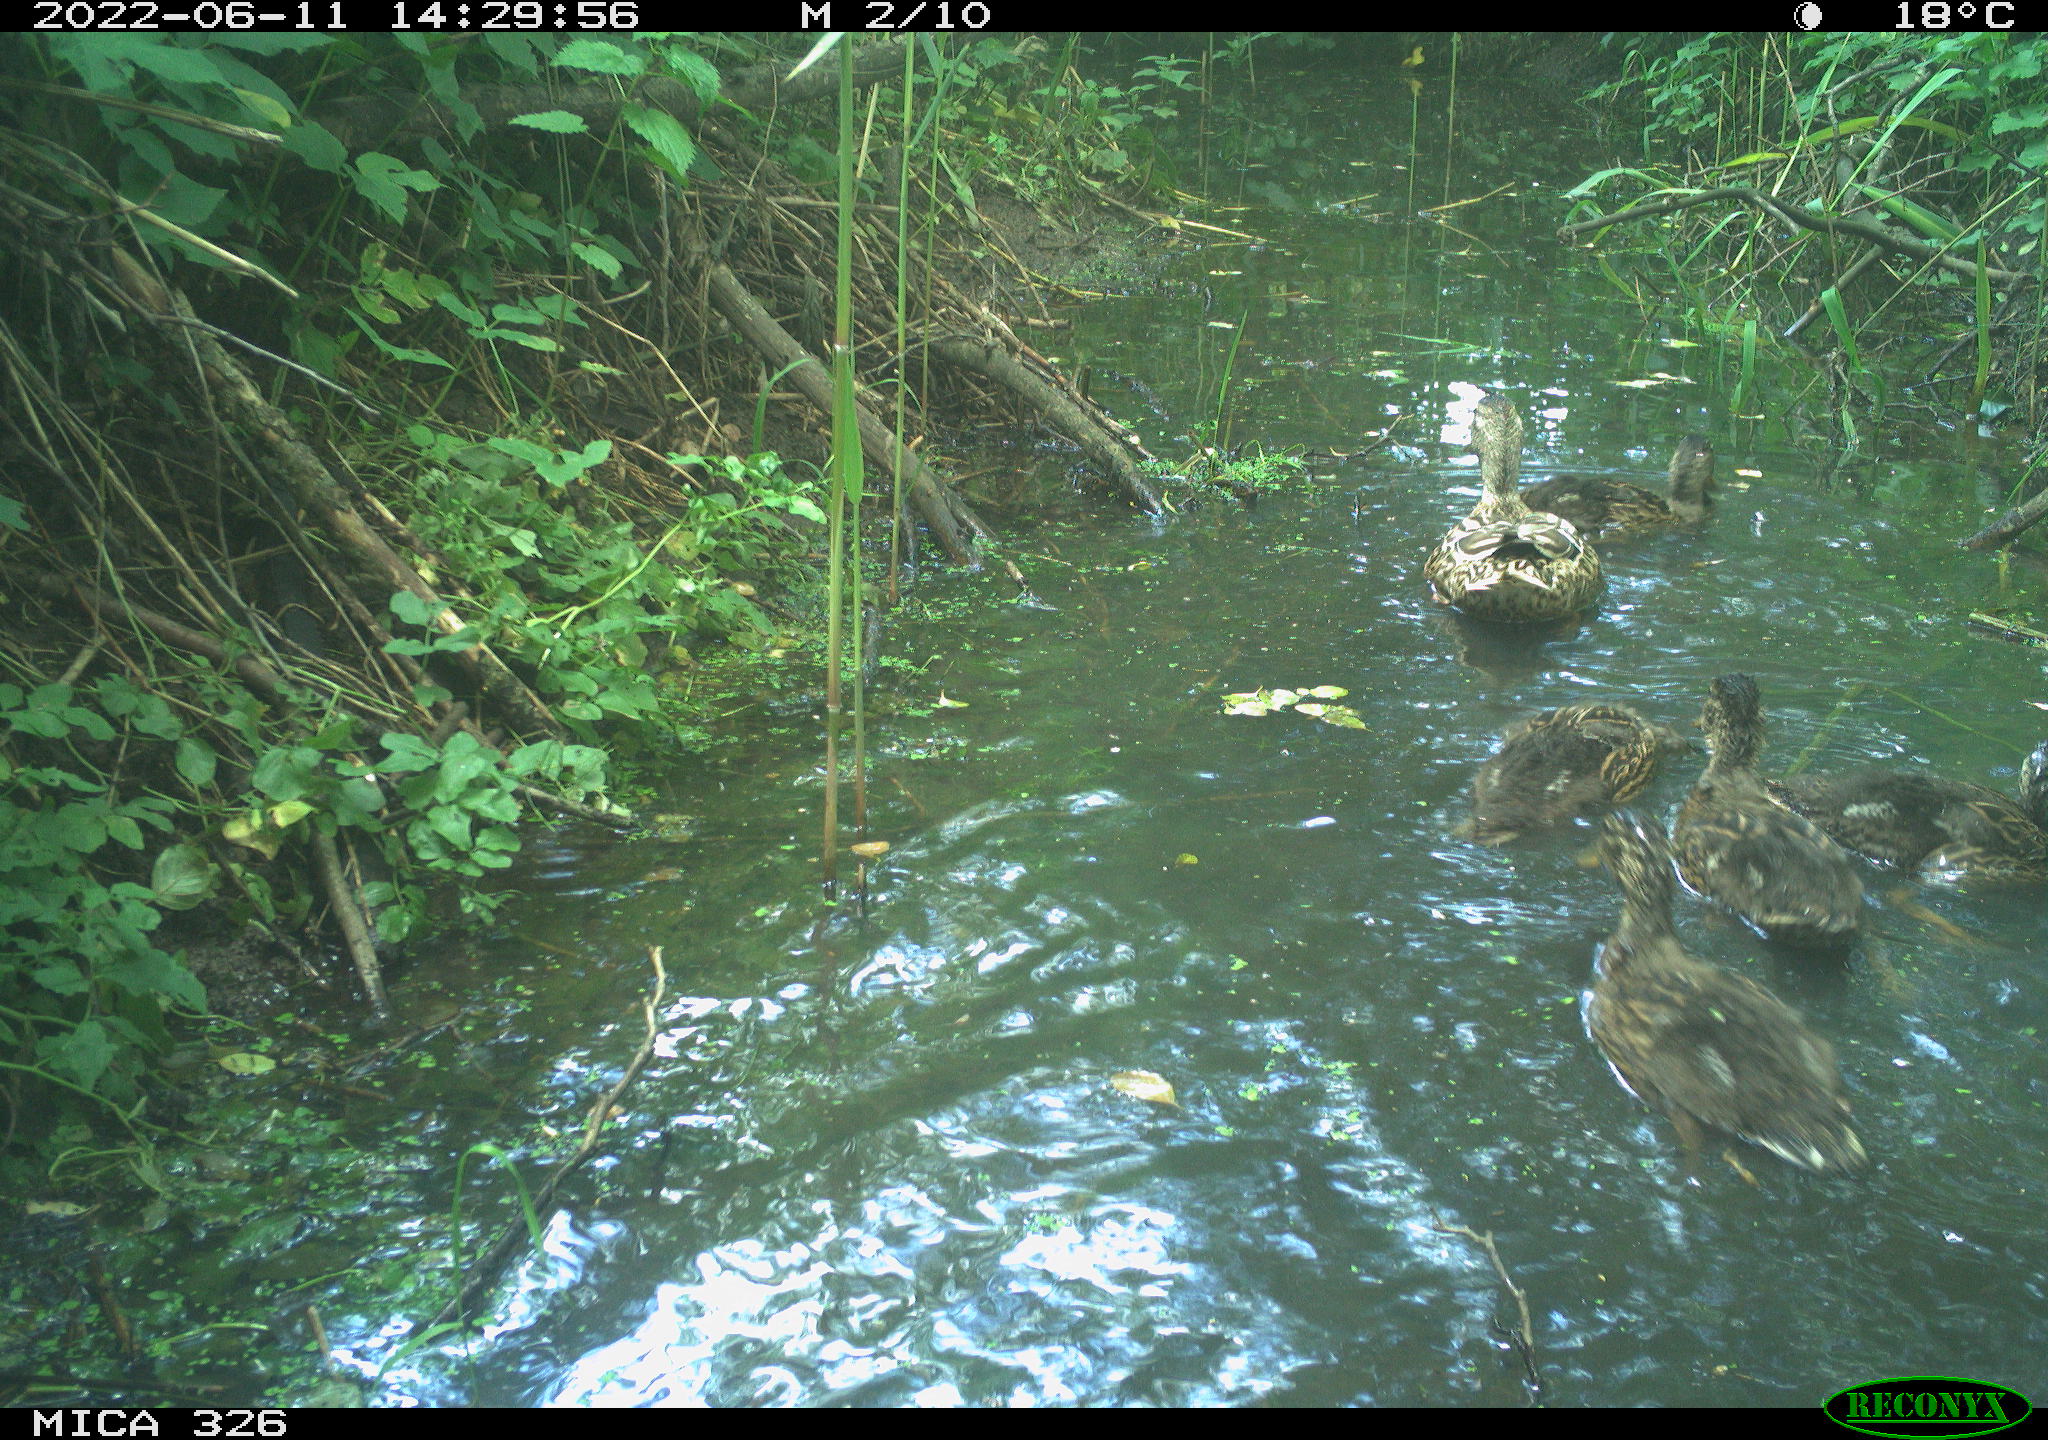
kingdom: Animalia
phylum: Chordata
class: Aves
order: Anseriformes
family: Anatidae
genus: Anas
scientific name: Anas platyrhynchos
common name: Mallard
